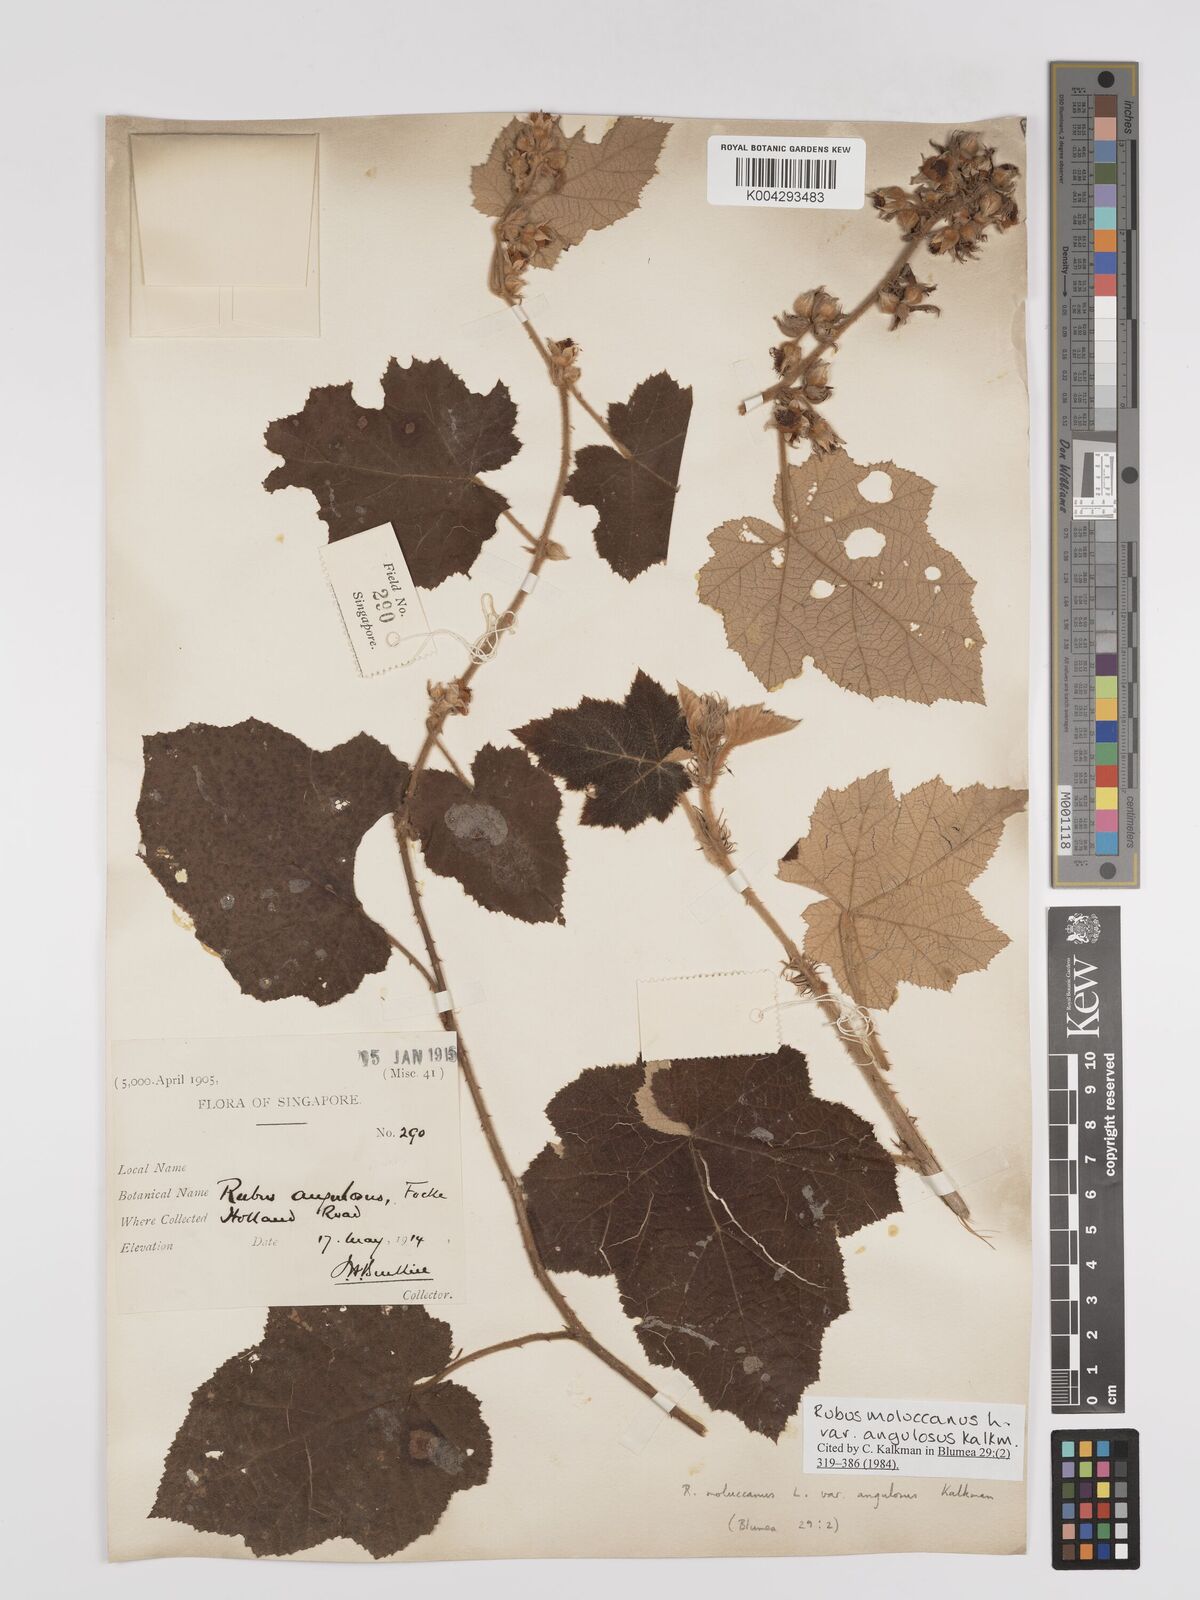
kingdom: Plantae
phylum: Tracheophyta
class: Magnoliopsida
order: Rosales
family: Rosaceae
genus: Rubus
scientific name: Rubus moluccanus
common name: Wild raspberry
